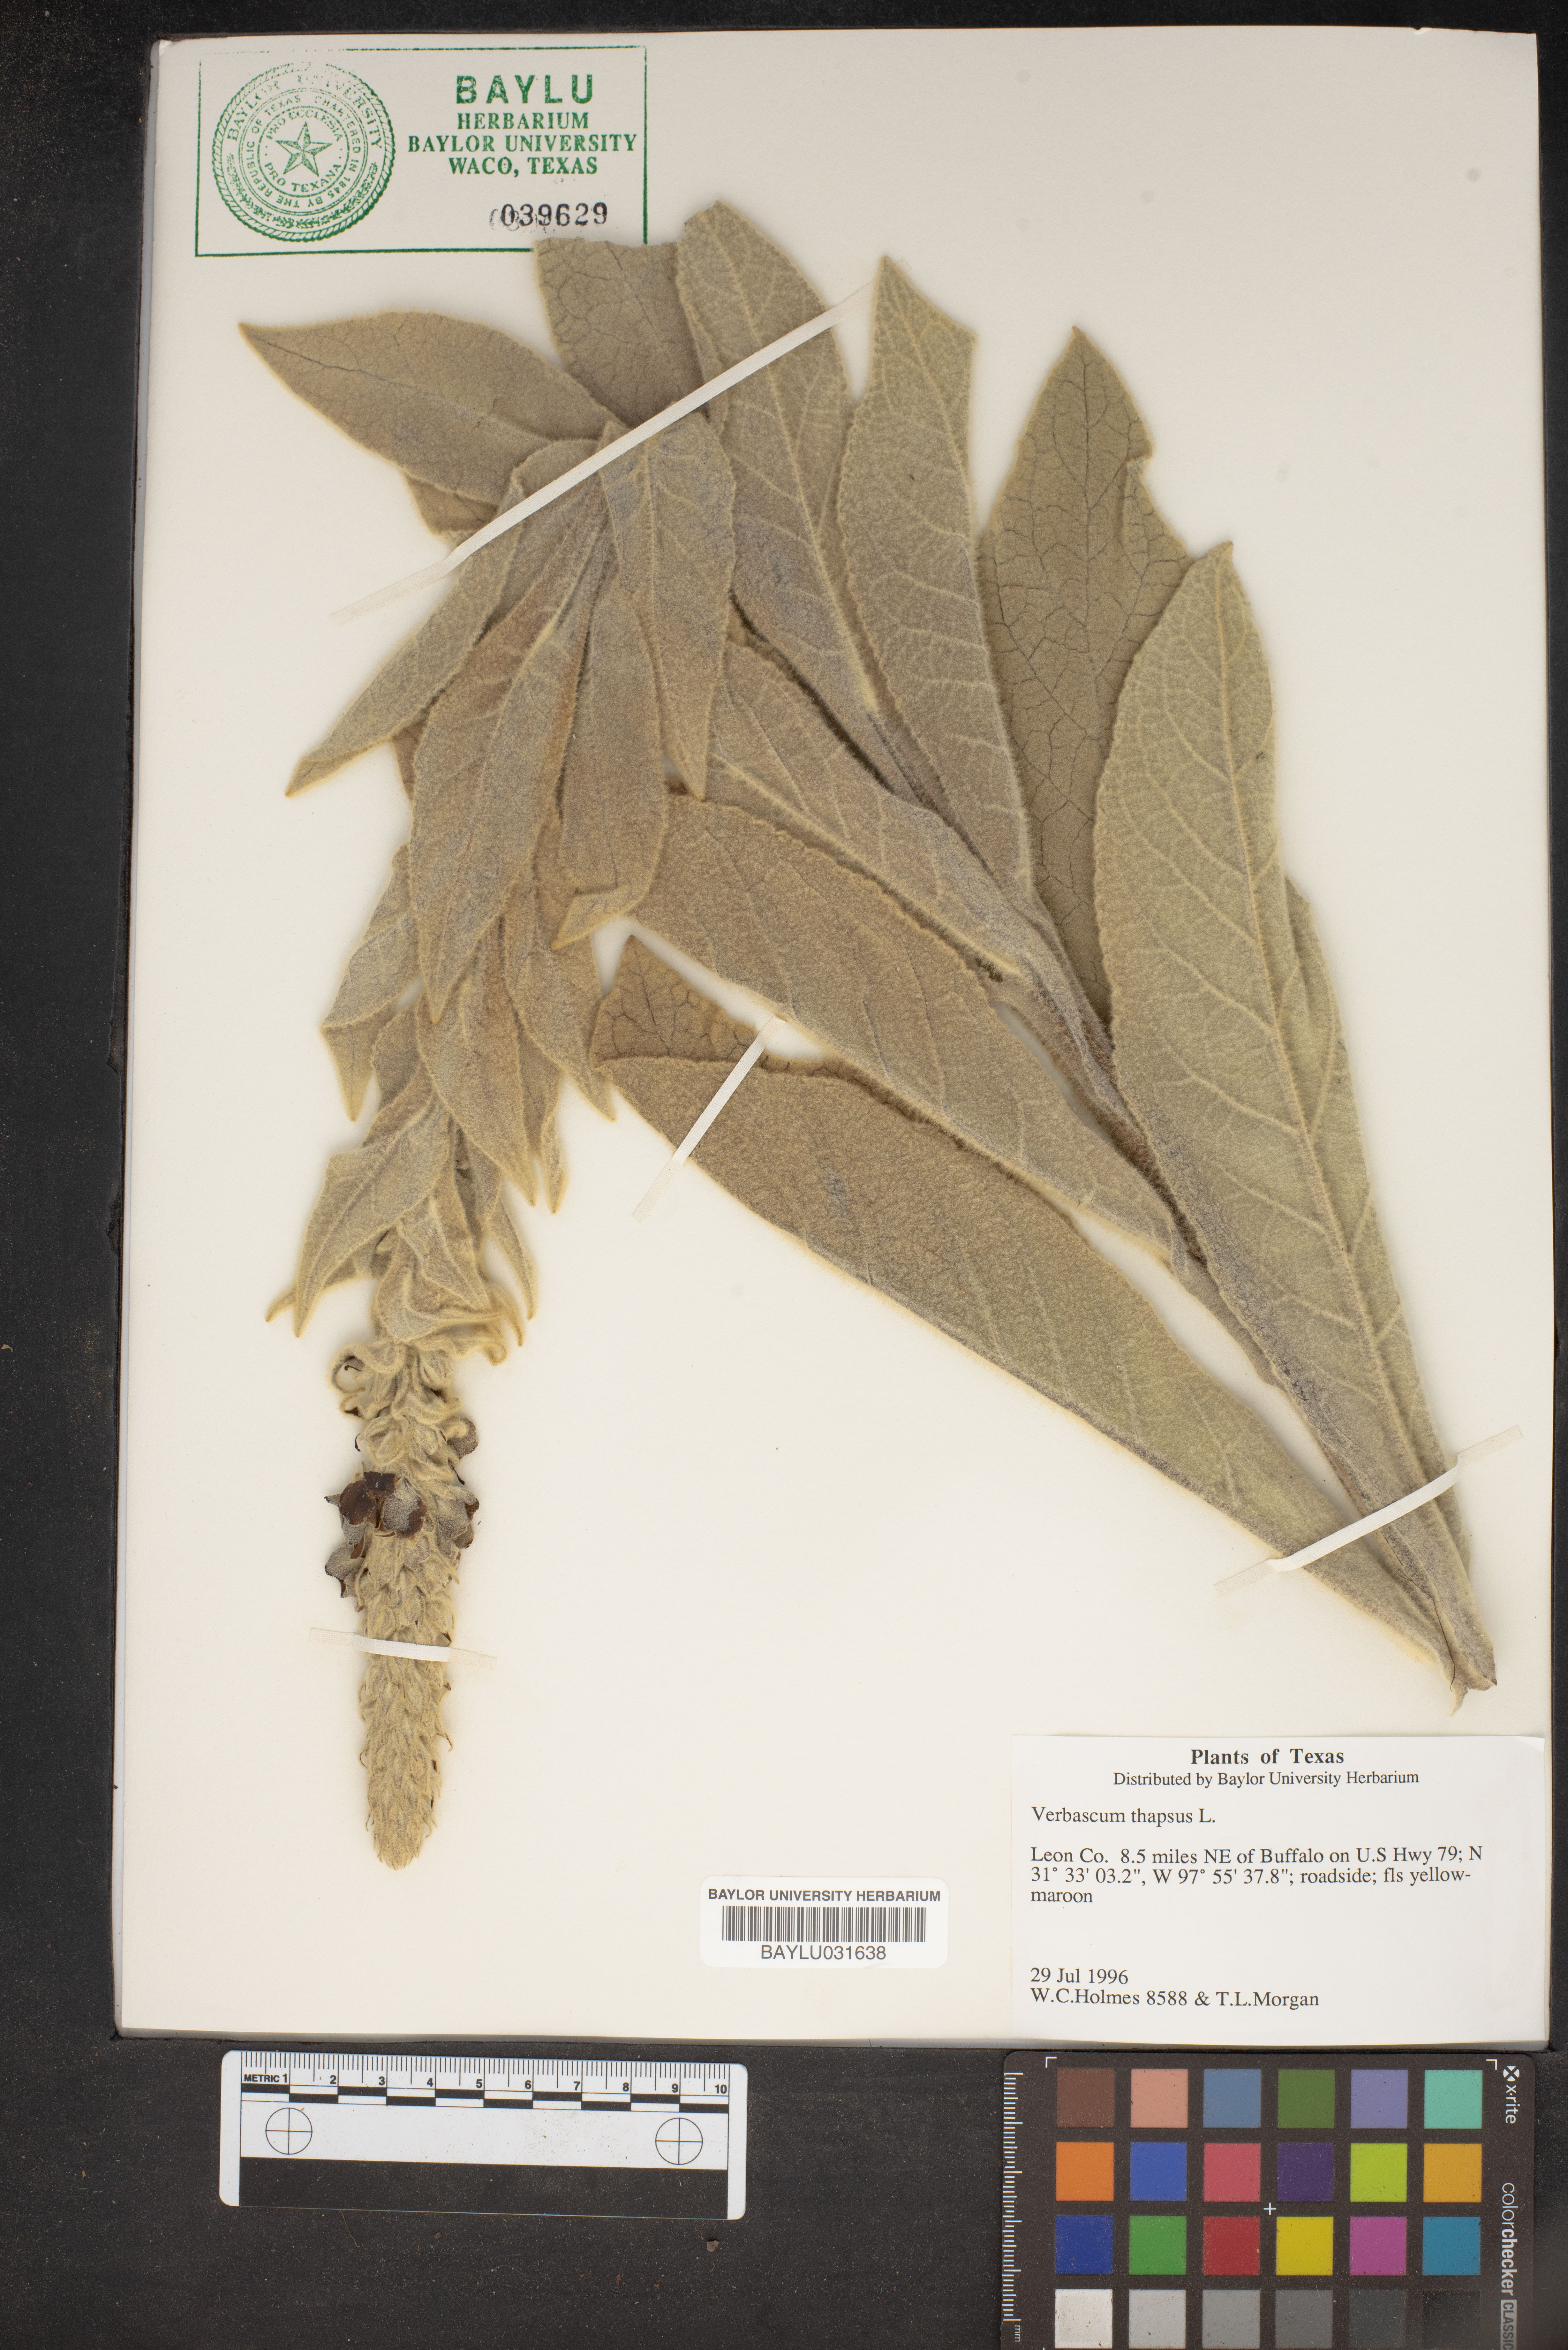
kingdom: Plantae
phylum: Tracheophyta
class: Magnoliopsida
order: Lamiales
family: Scrophulariaceae
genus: Verbascum
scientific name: Verbascum thapsus
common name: Common mullein
